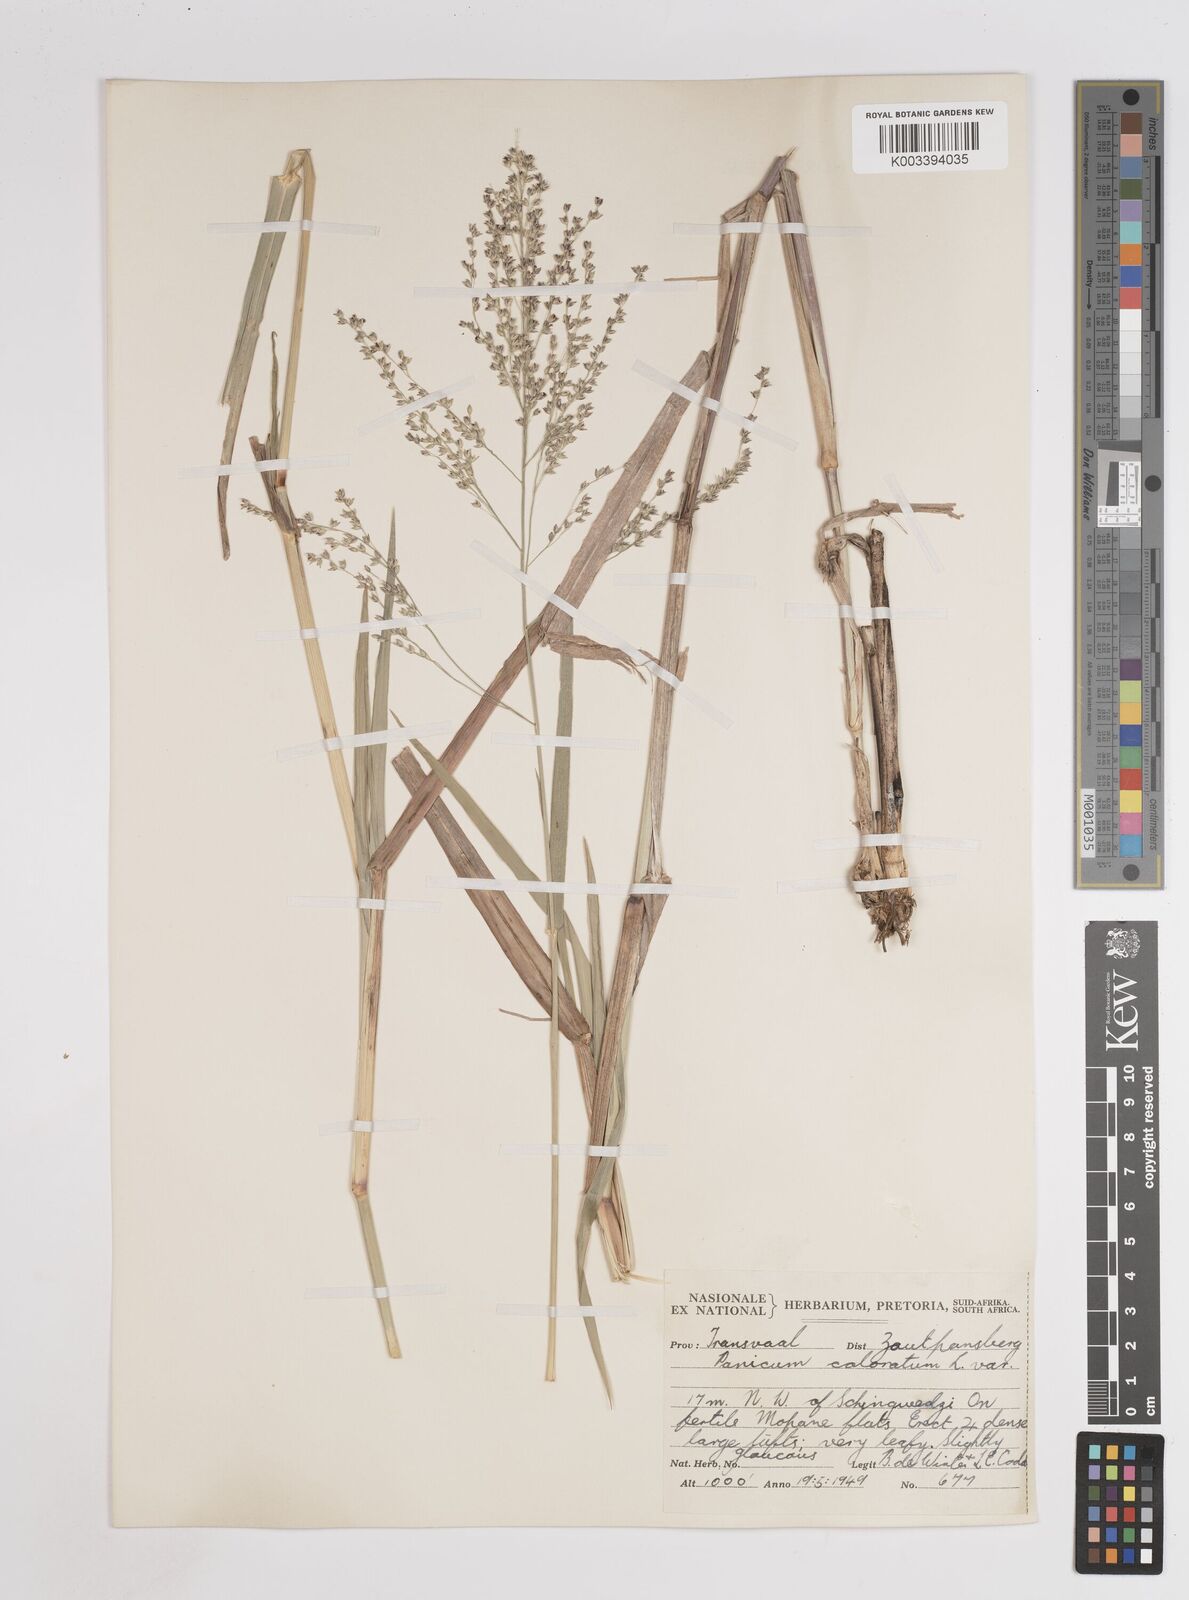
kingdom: Plantae
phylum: Tracheophyta
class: Liliopsida
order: Poales
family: Poaceae
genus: Panicum
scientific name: Panicum coloratum
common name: Kleingrass
